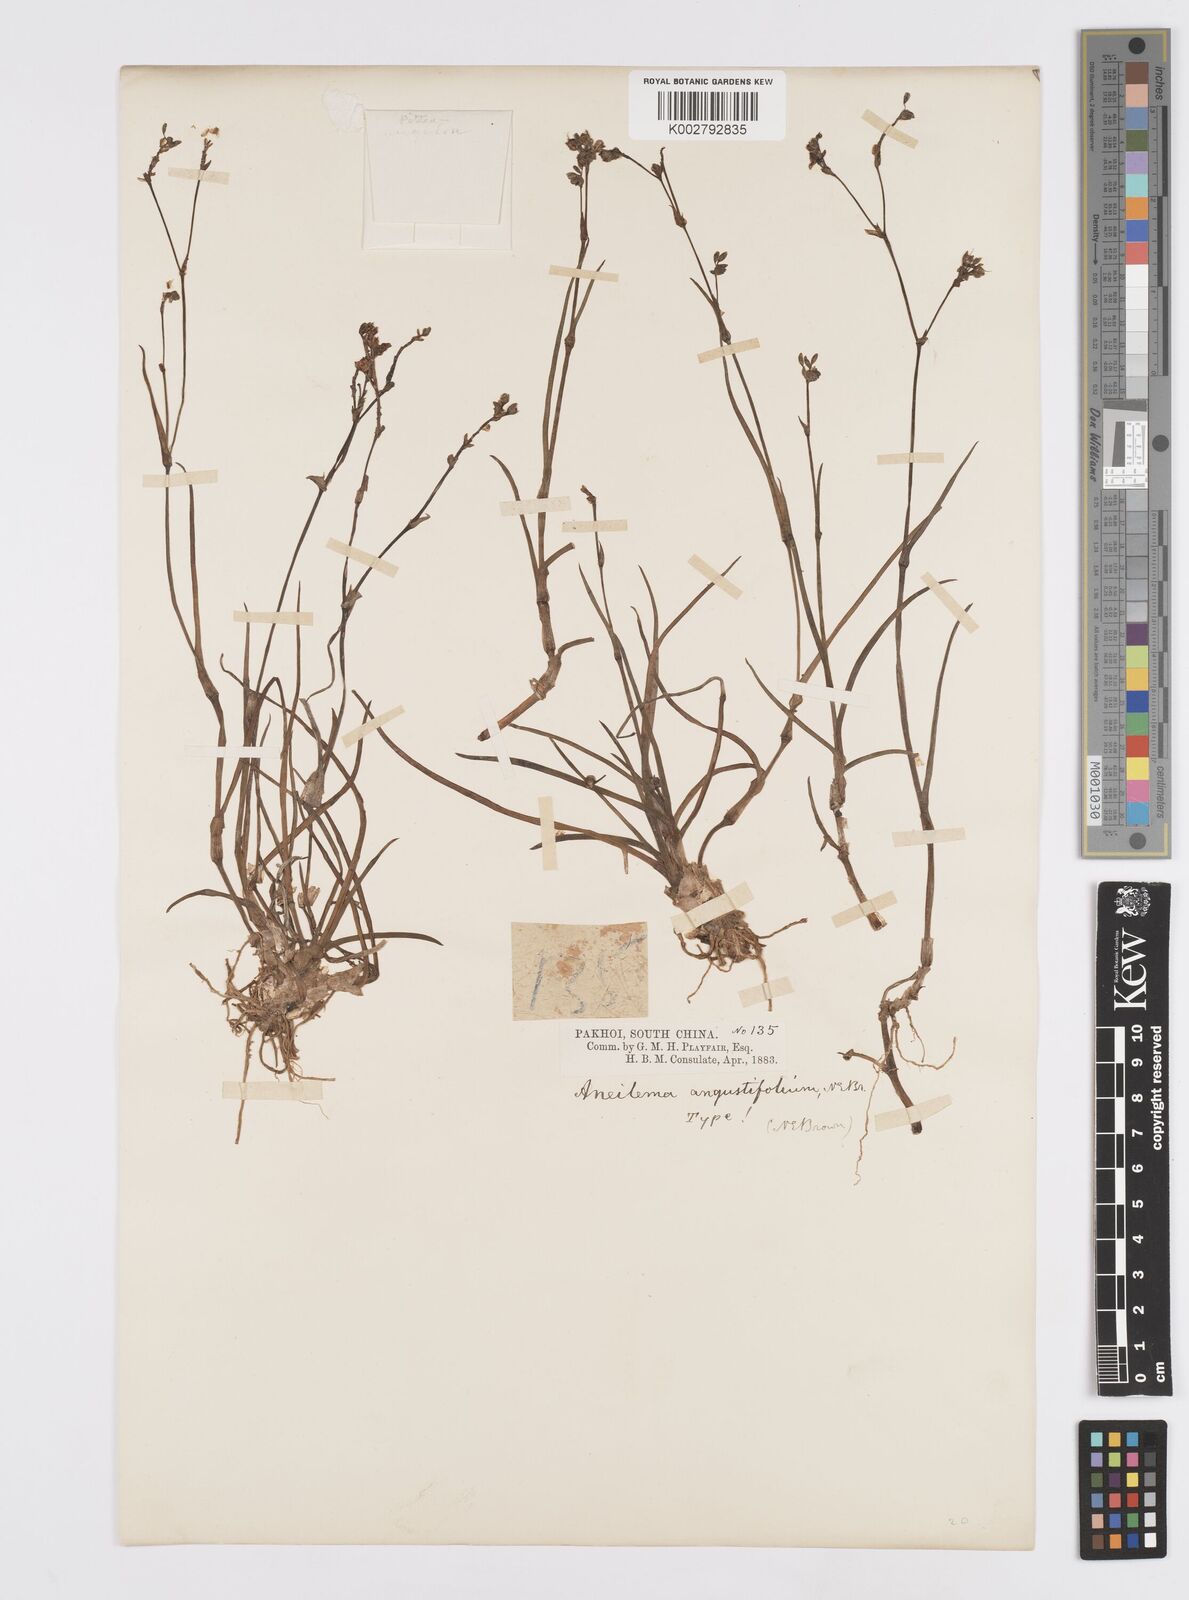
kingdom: Plantae
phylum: Tracheophyta
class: Liliopsida
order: Commelinales
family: Commelinaceae
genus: Murdannia
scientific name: Murdannia loriformis
